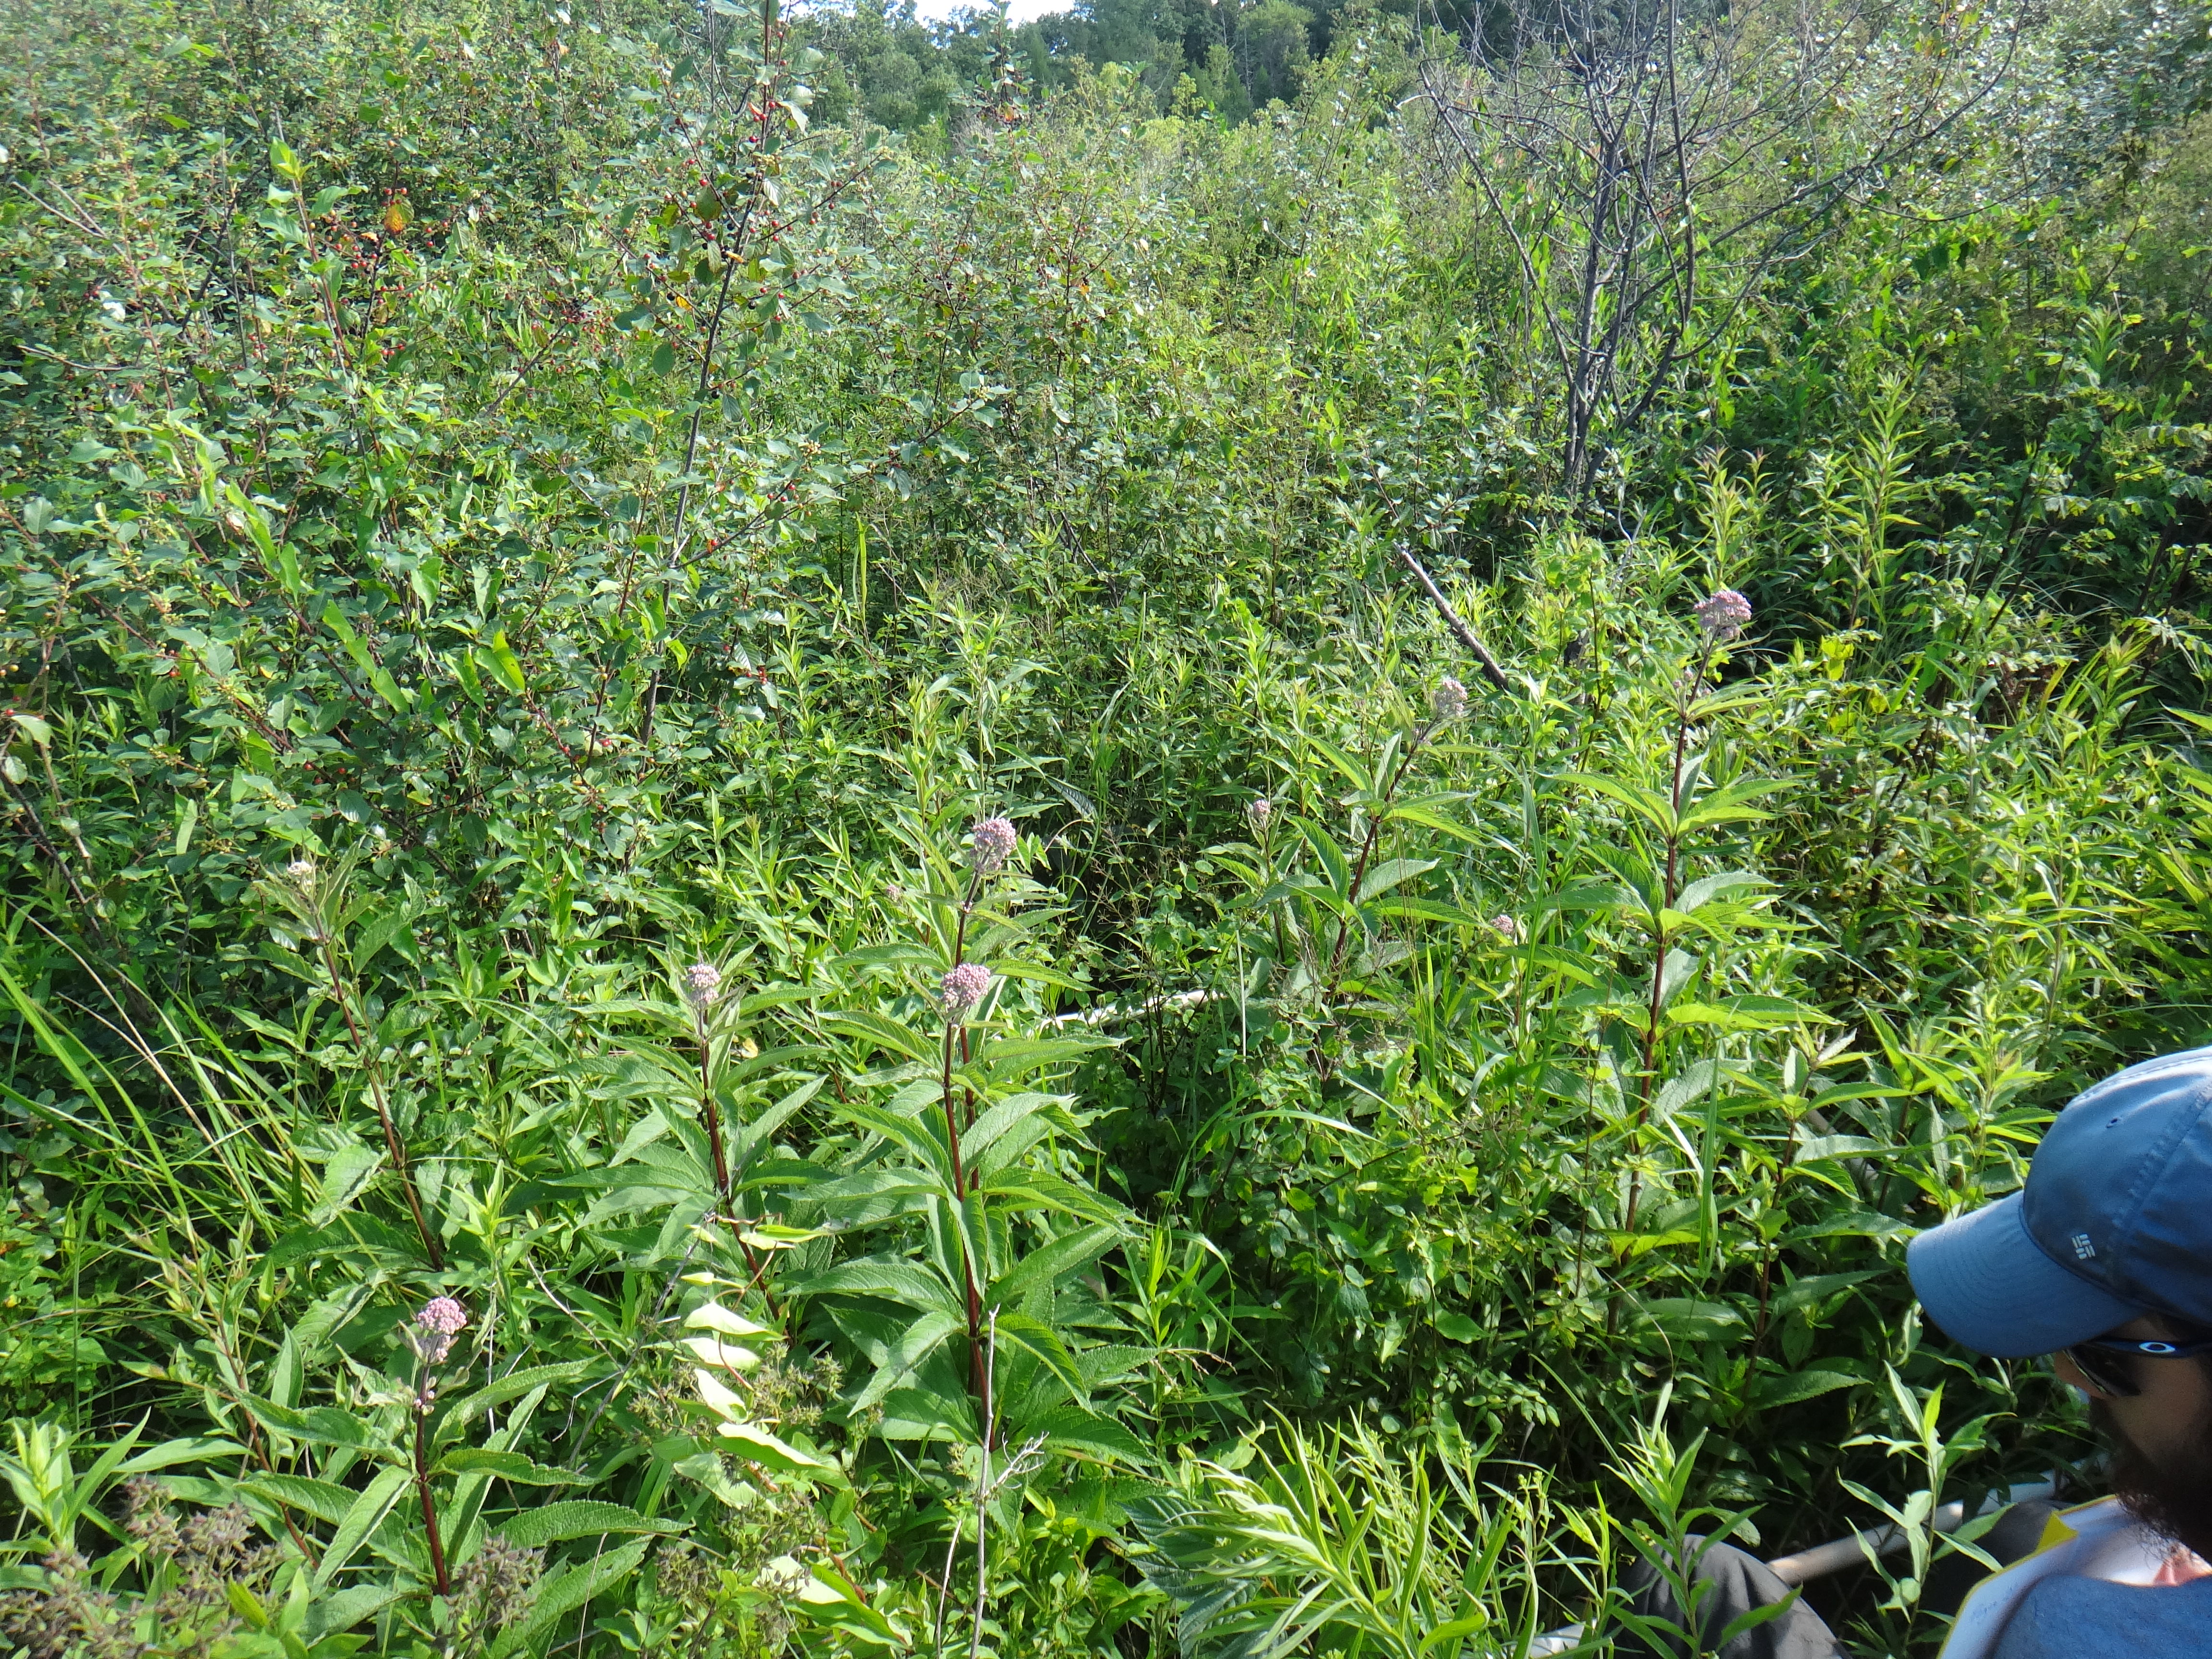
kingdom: Plantae
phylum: Tracheophyta
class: Magnoliopsida
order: Rosales
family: Rhamnaceae
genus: Frangula
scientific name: Frangula alnus
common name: Alder buckthorn
